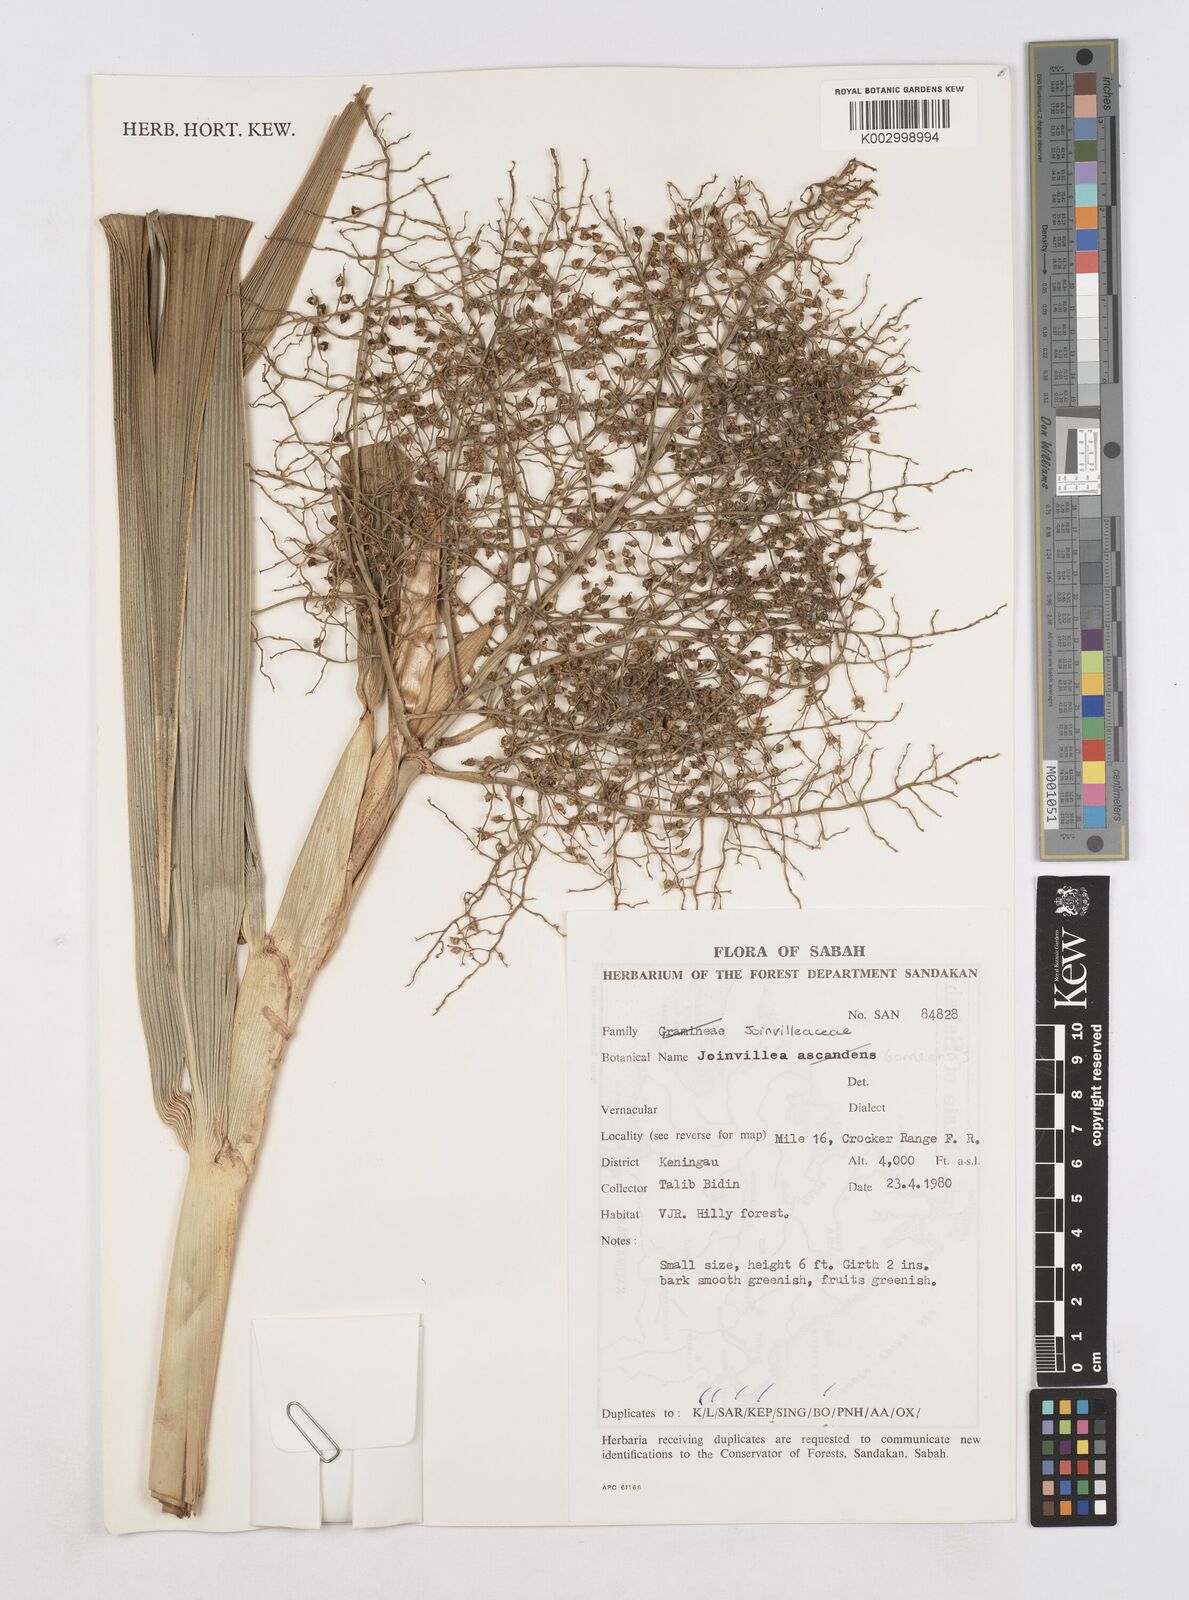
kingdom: Plantae
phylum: Tracheophyta
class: Liliopsida
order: Poales
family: Joinvilleaceae
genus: Joinvillea
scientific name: Joinvillea borneensis
